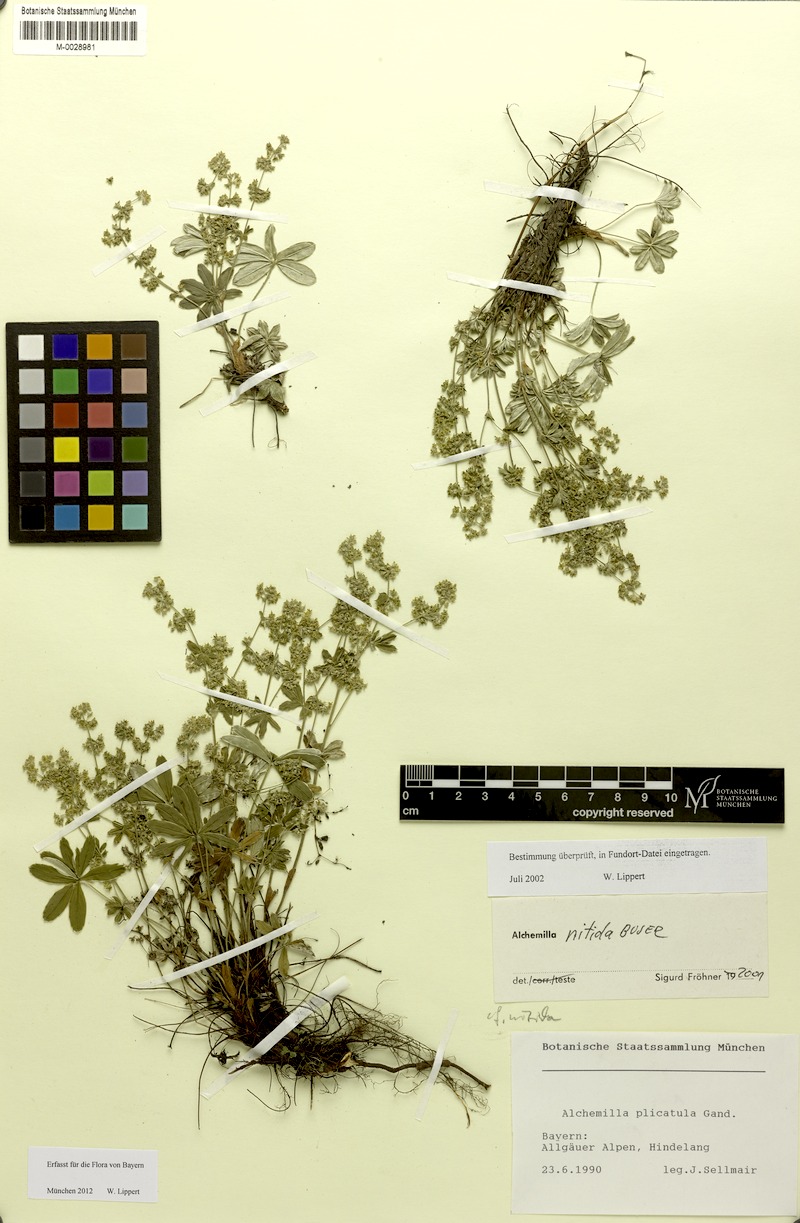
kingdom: Plantae
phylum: Tracheophyta
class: Magnoliopsida
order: Rosales
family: Rosaceae
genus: Alchemilla
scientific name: Alchemilla nitida
